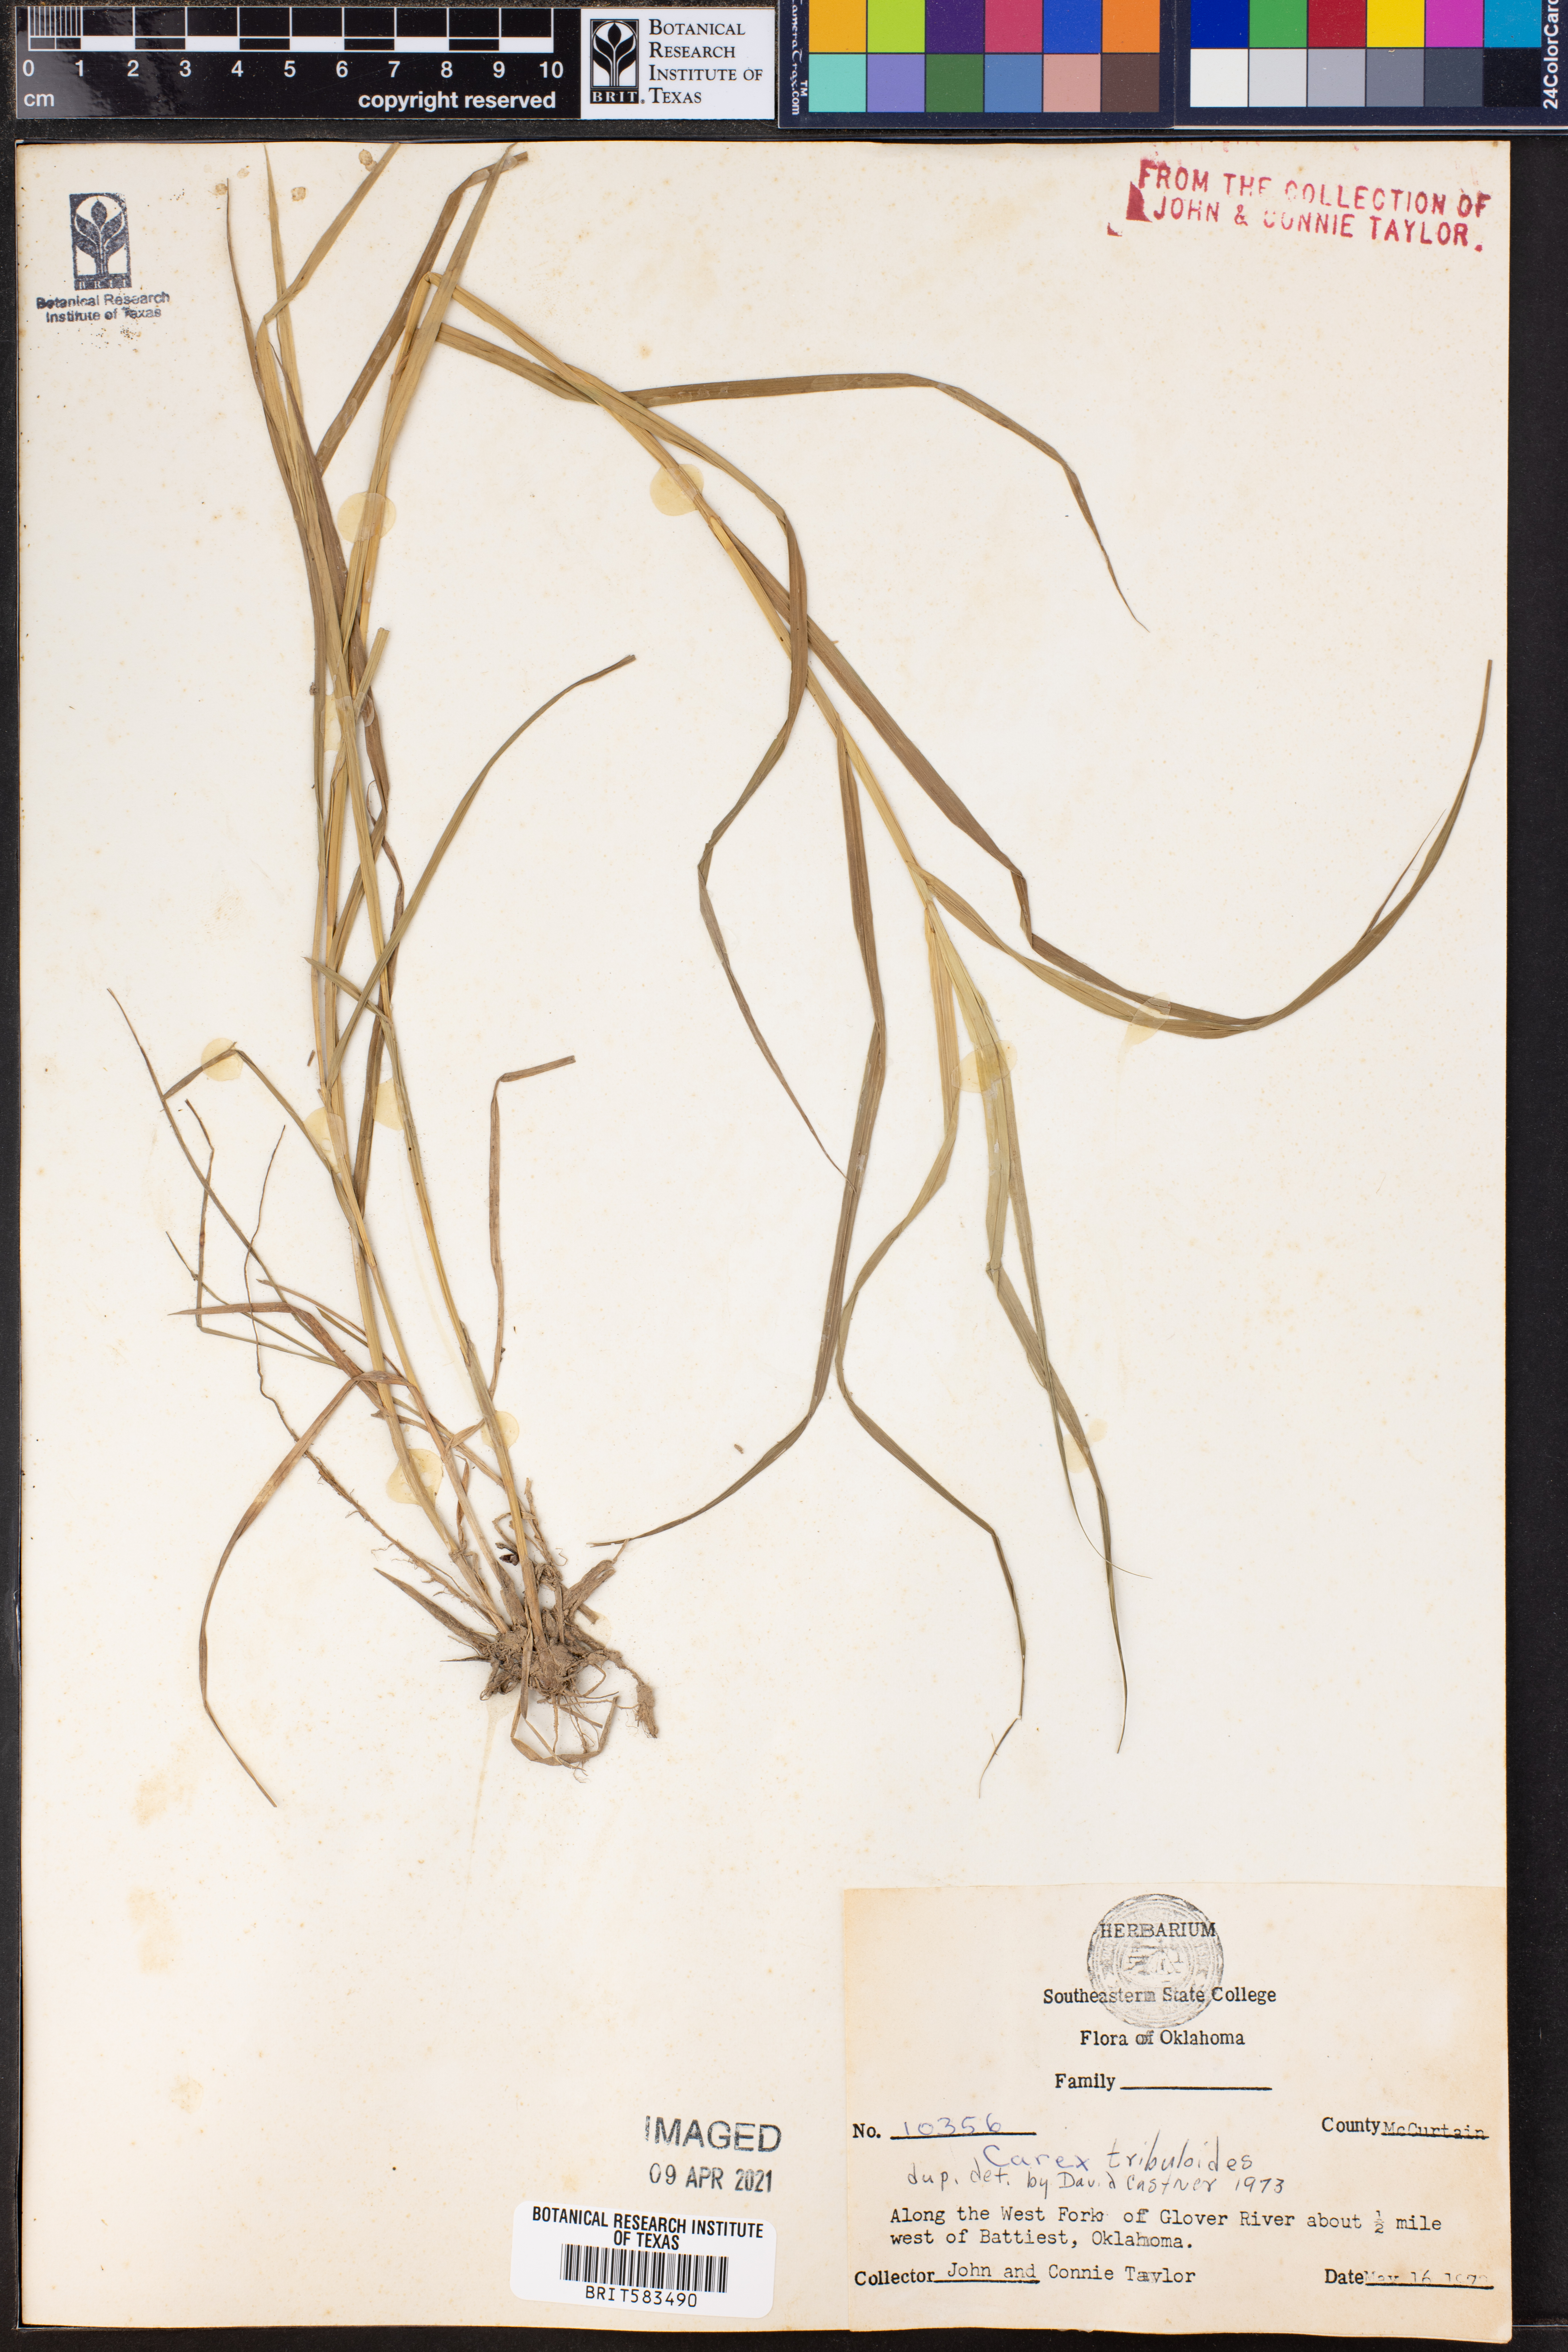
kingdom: Plantae
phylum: Tracheophyta
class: Liliopsida
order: Poales
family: Cyperaceae
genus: Carex
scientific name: Carex tribuloides
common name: Blunt broom sedge
